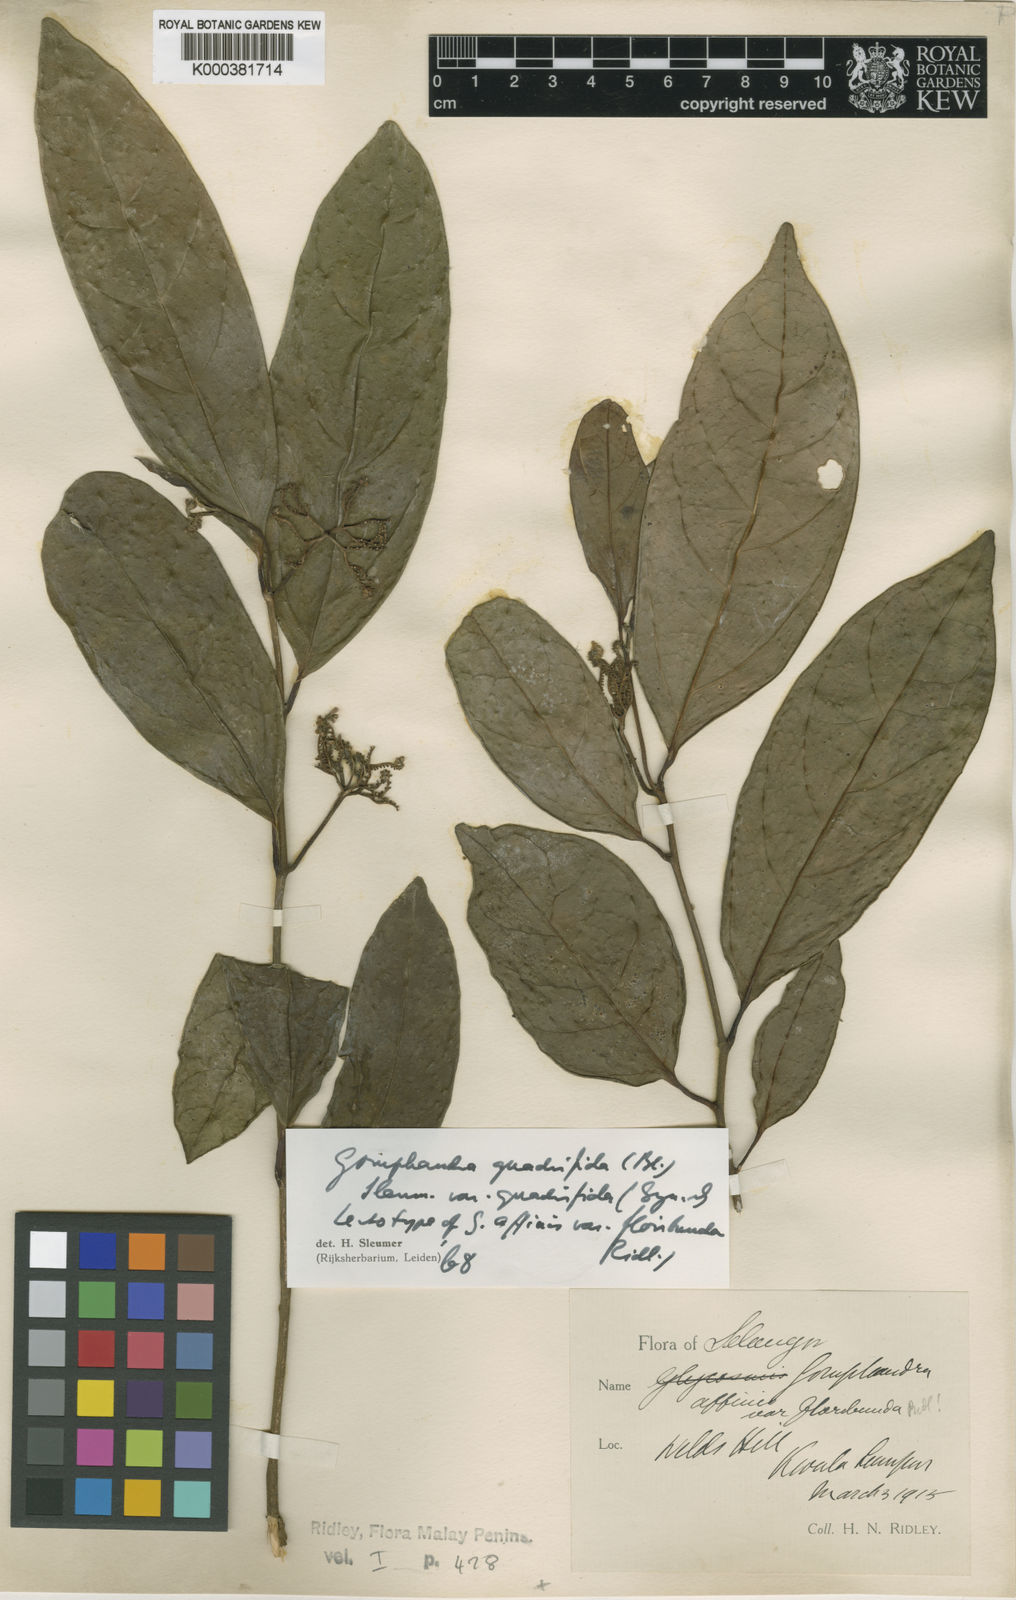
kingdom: Plantae
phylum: Tracheophyta
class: Magnoliopsida
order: Cardiopteridales
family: Stemonuraceae
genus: Gomphandra
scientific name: Gomphandra quadrifida
